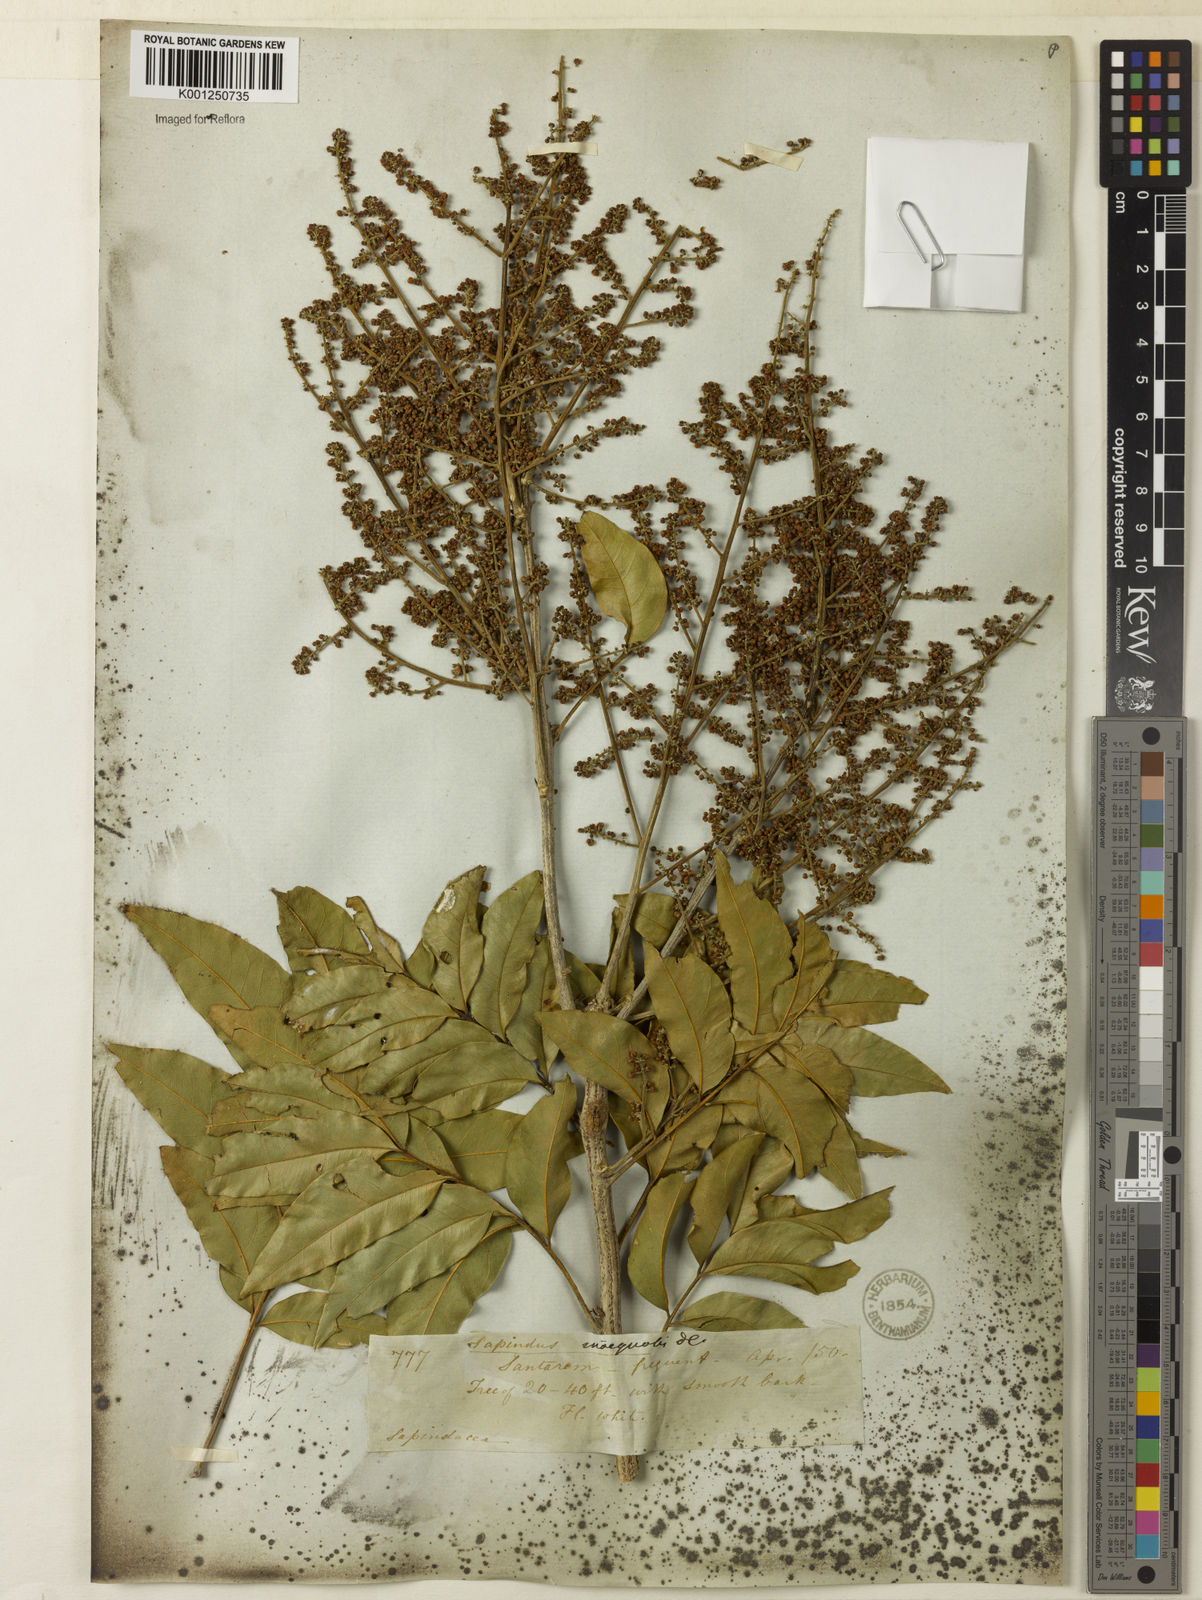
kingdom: Plantae
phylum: Tracheophyta
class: Magnoliopsida
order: Sapindales
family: Sapindaceae
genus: Sapindus
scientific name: Sapindus saponaria
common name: Wingleaf soapberry
